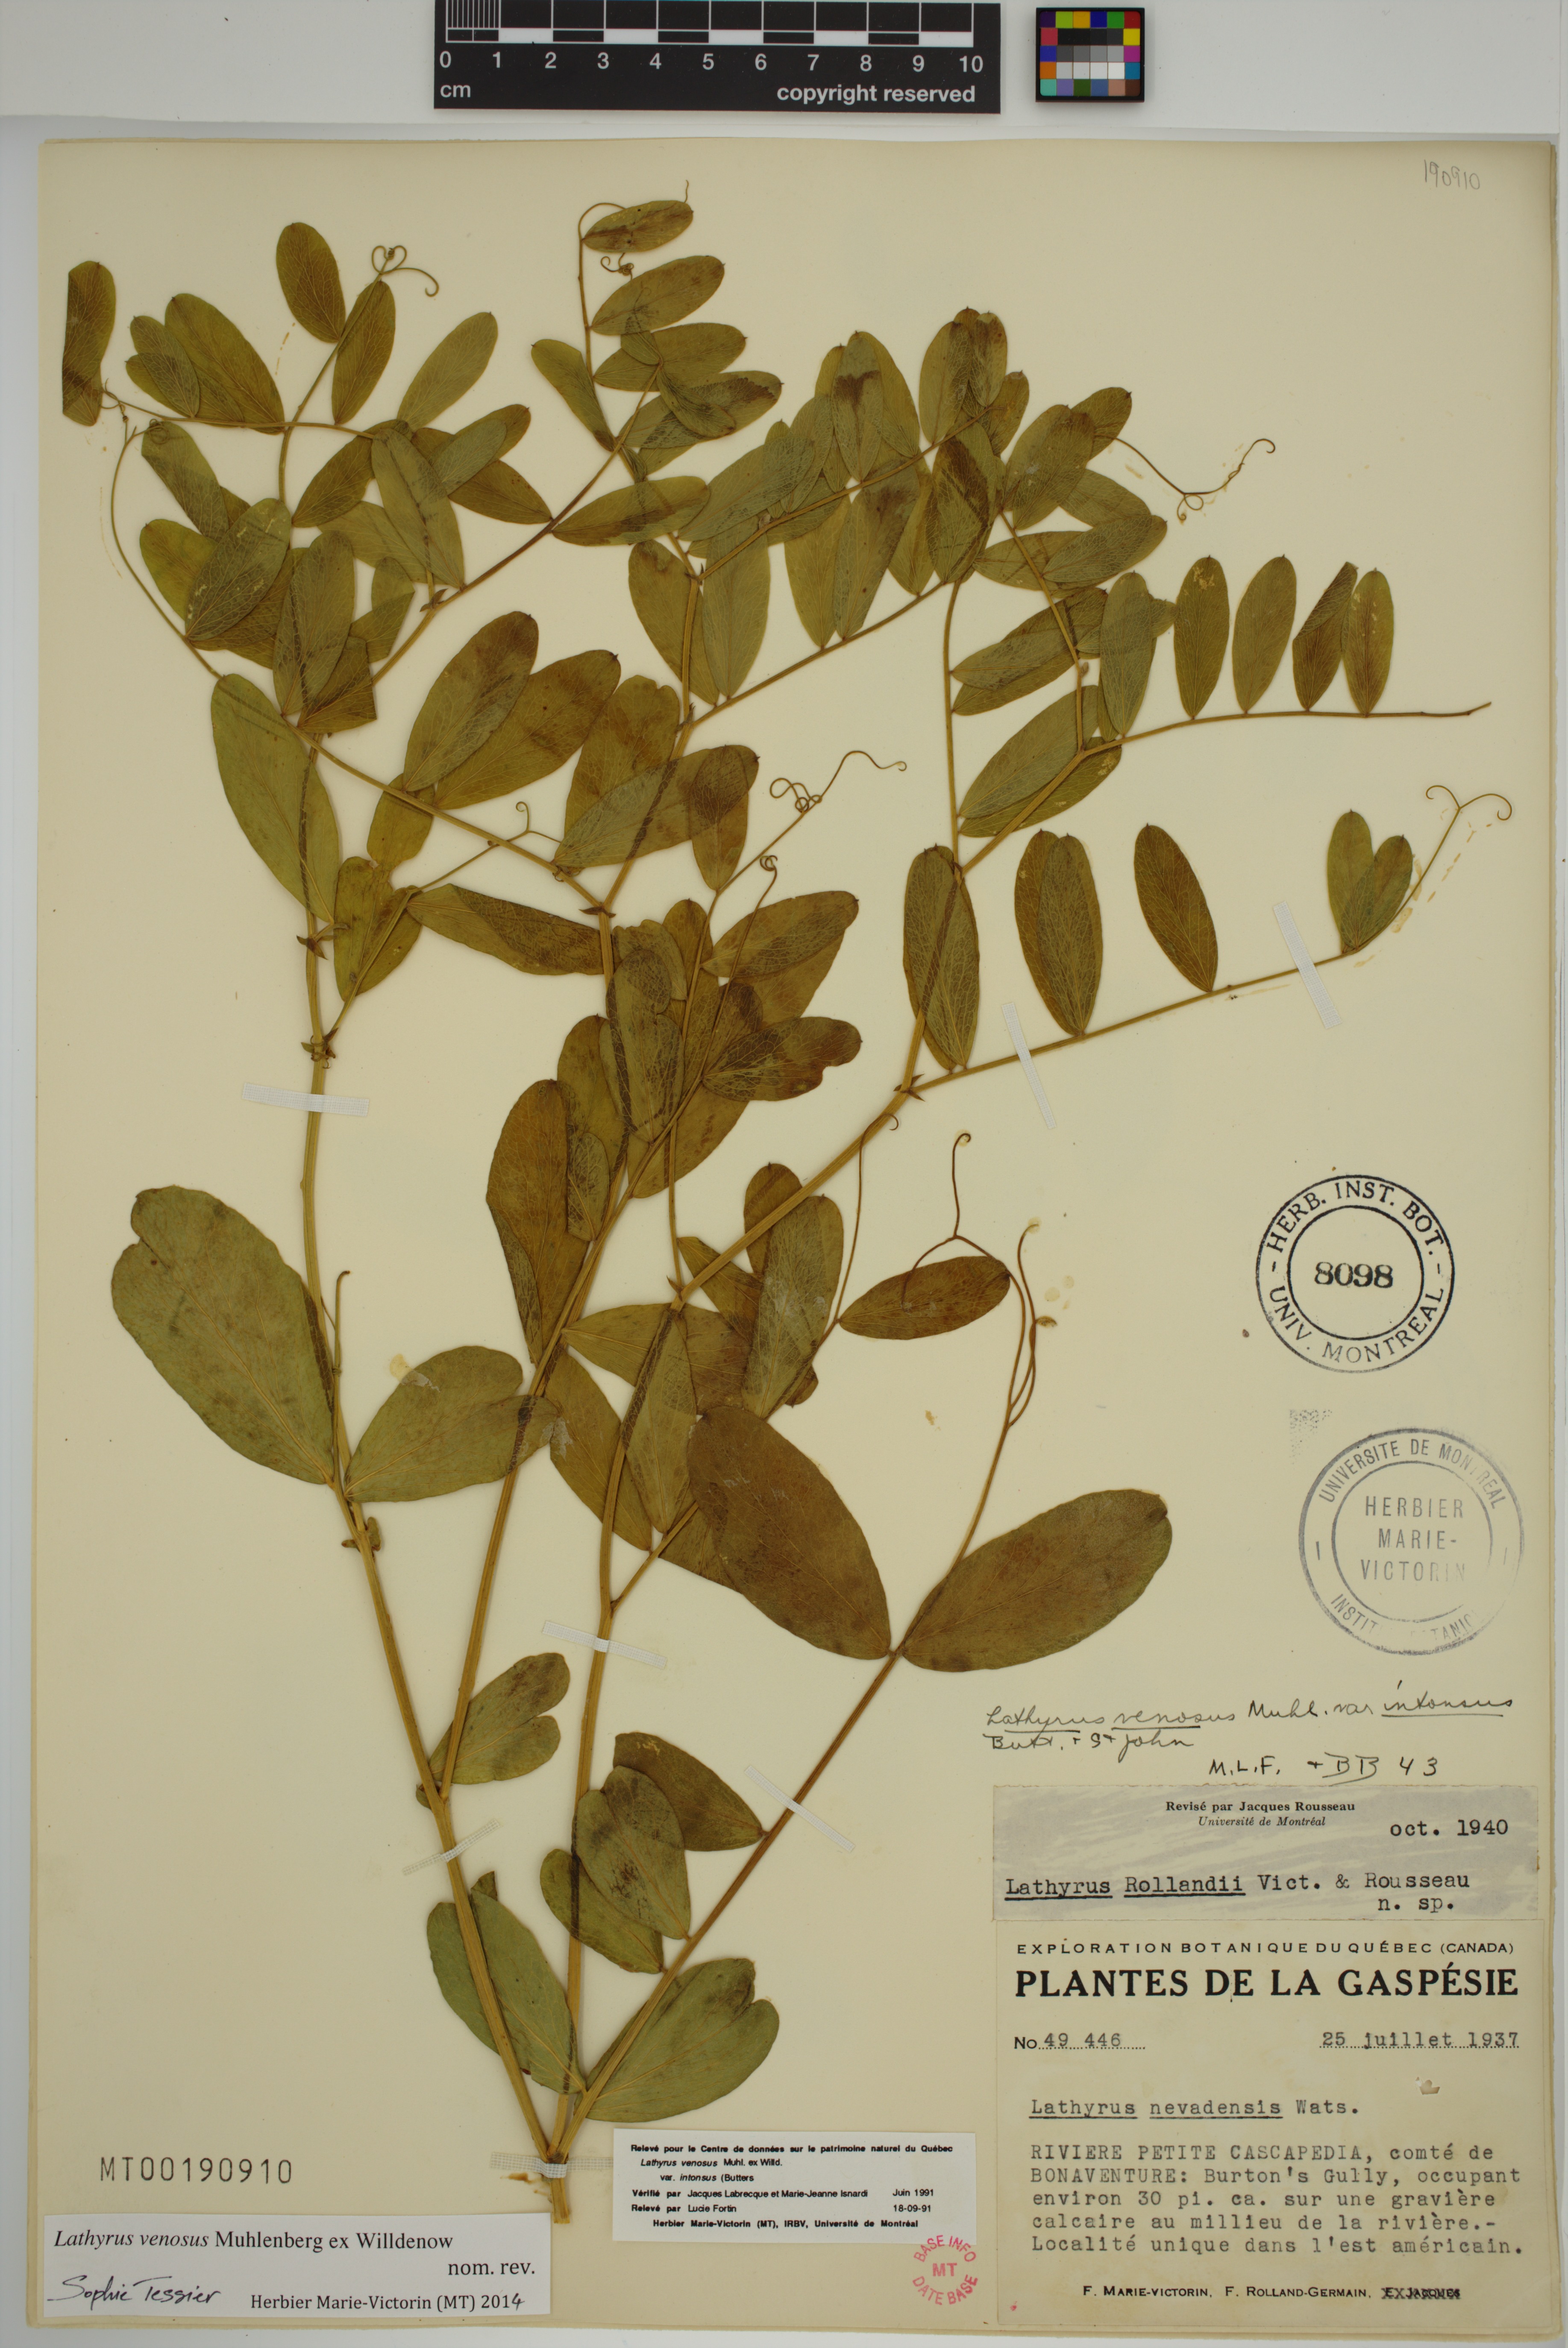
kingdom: Plantae
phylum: Tracheophyta
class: Magnoliopsida
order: Fabales
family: Fabaceae
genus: Lathyrus
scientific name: Lathyrus venosus
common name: Forest-pea
